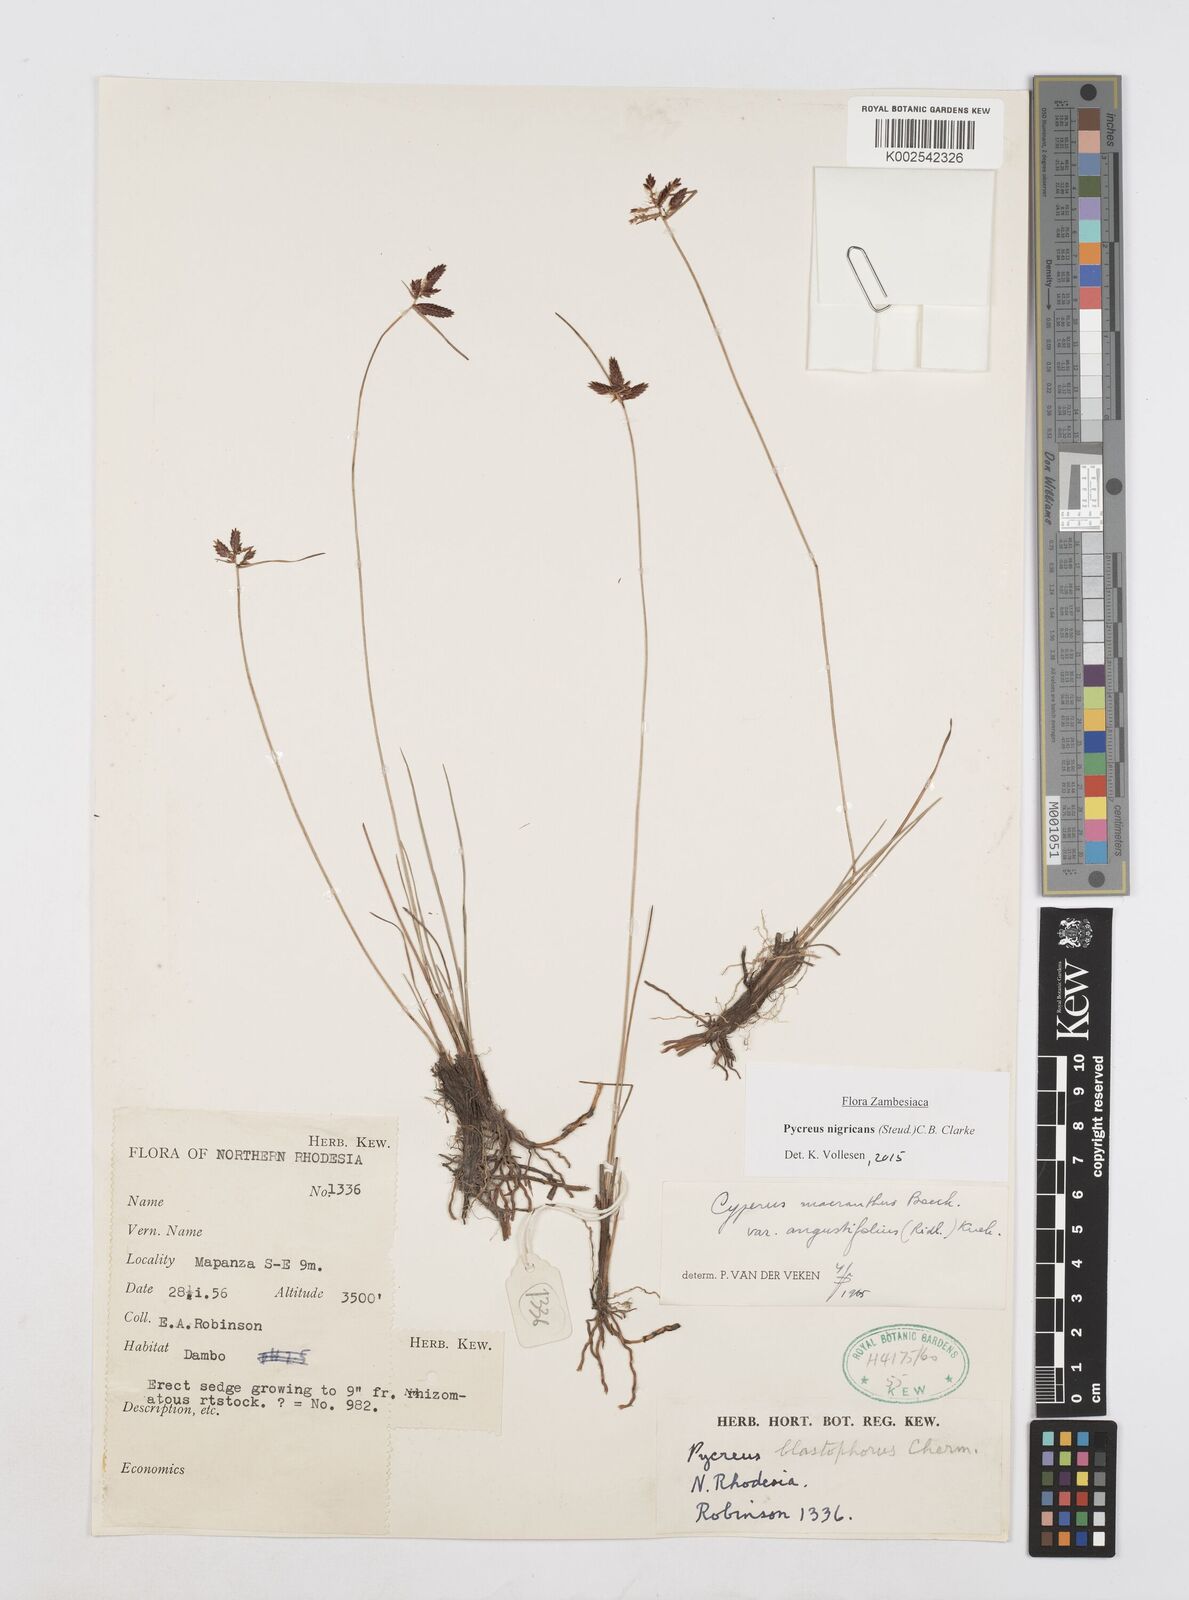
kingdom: Plantae
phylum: Tracheophyta
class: Liliopsida
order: Poales
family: Cyperaceae
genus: Cyperus
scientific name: Cyperus nigricans
